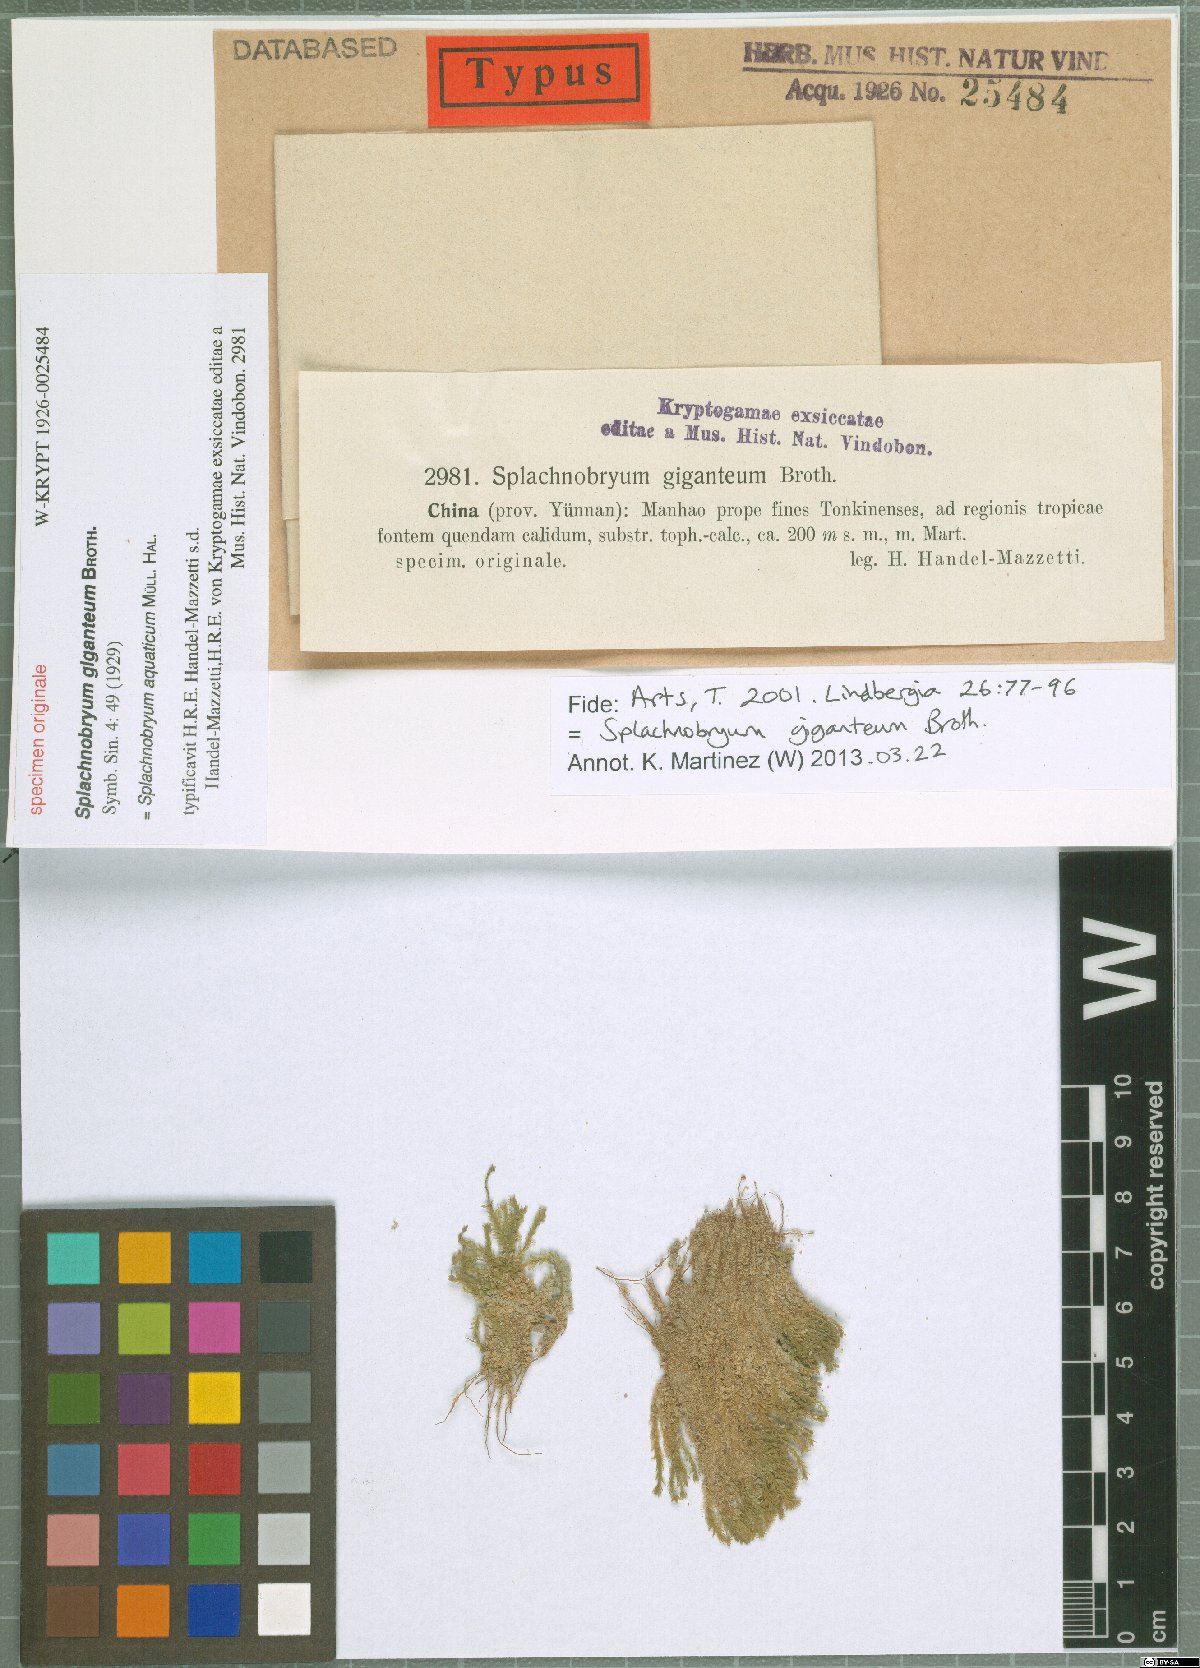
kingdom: Plantae
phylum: Bryophyta
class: Bryopsida
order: Pottiales
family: Splachnobryaceae
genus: Splachnobryum
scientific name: Splachnobryum aquaticum
